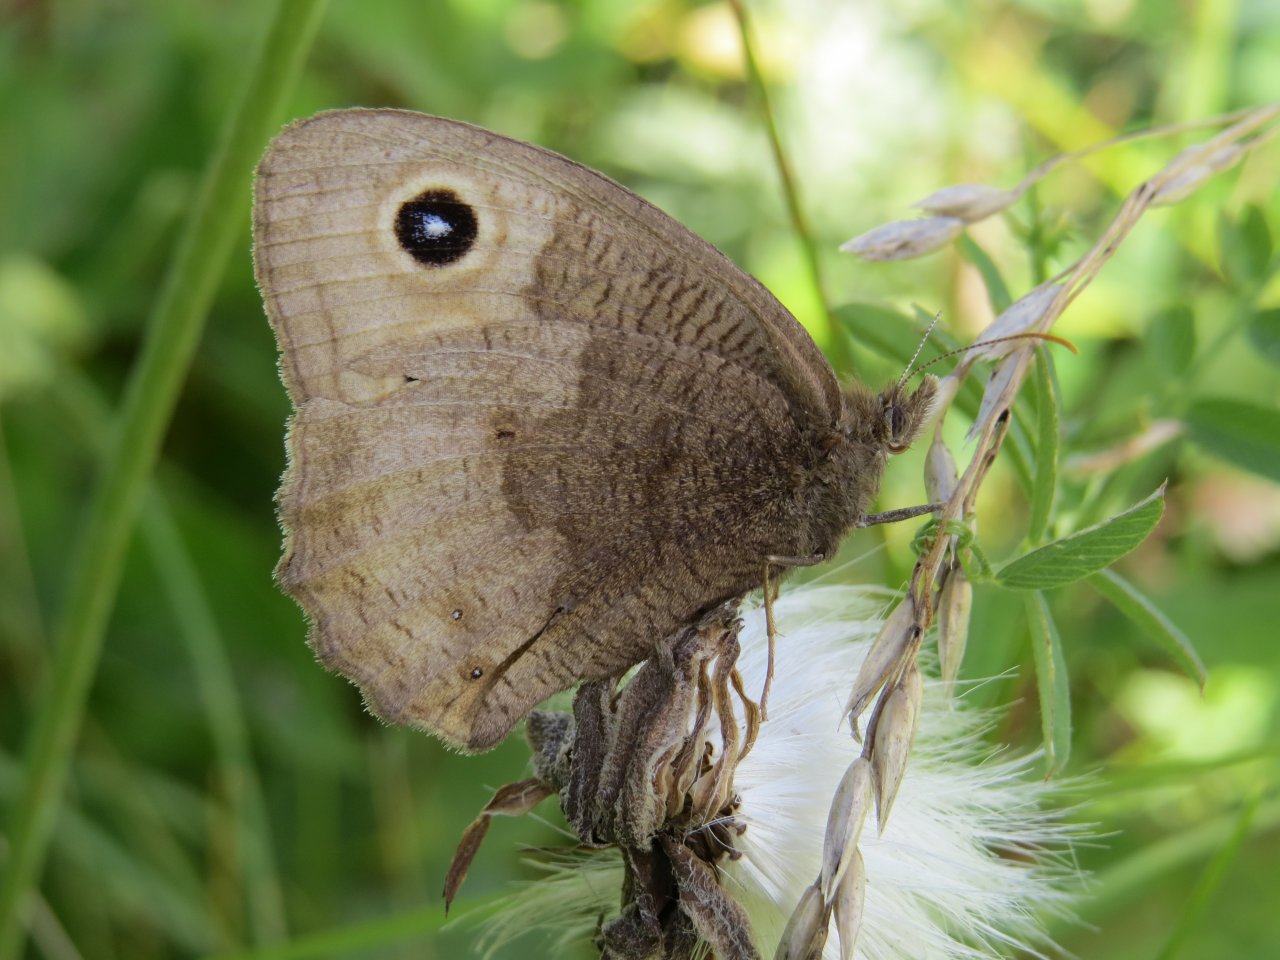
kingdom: Animalia
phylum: Arthropoda
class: Insecta
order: Lepidoptera
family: Nymphalidae
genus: Cercyonis
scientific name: Cercyonis pegala
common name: Common Wood-Nymph
